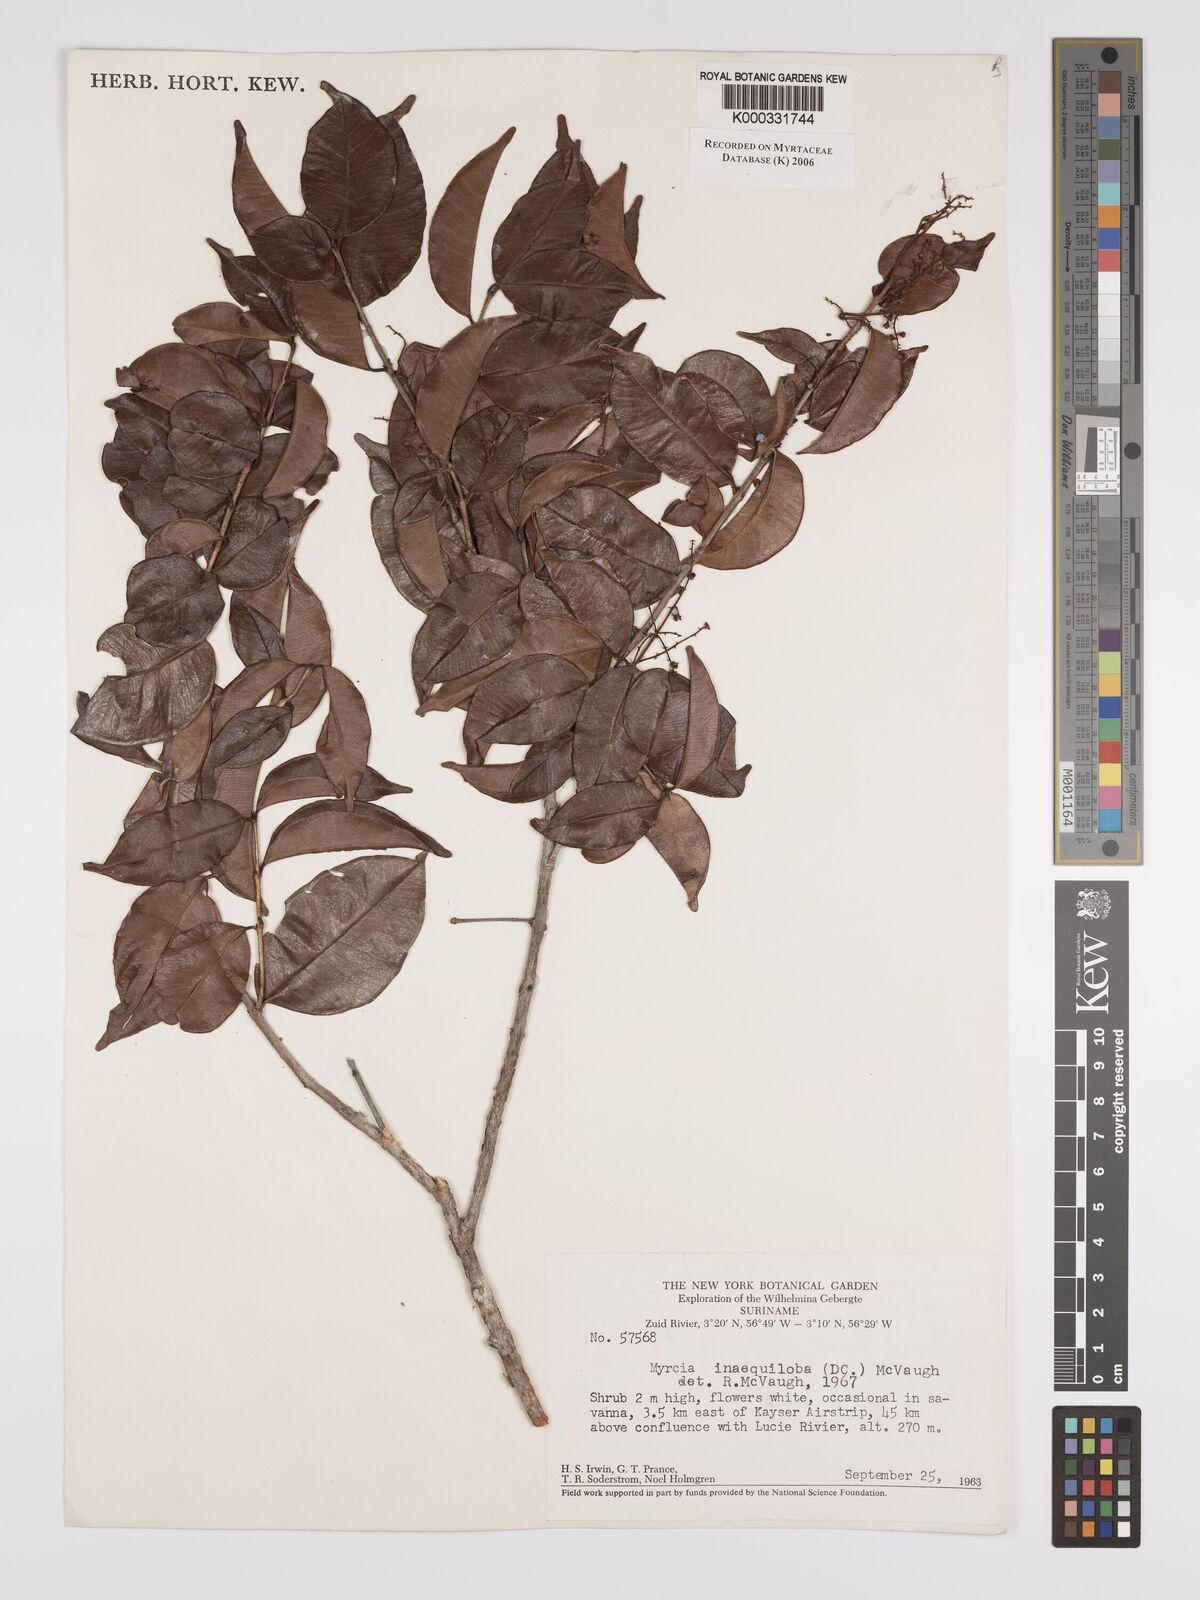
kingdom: Plantae
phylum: Tracheophyta
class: Magnoliopsida
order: Myrtales
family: Myrtaceae
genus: Myrcia
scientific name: Myrcia
